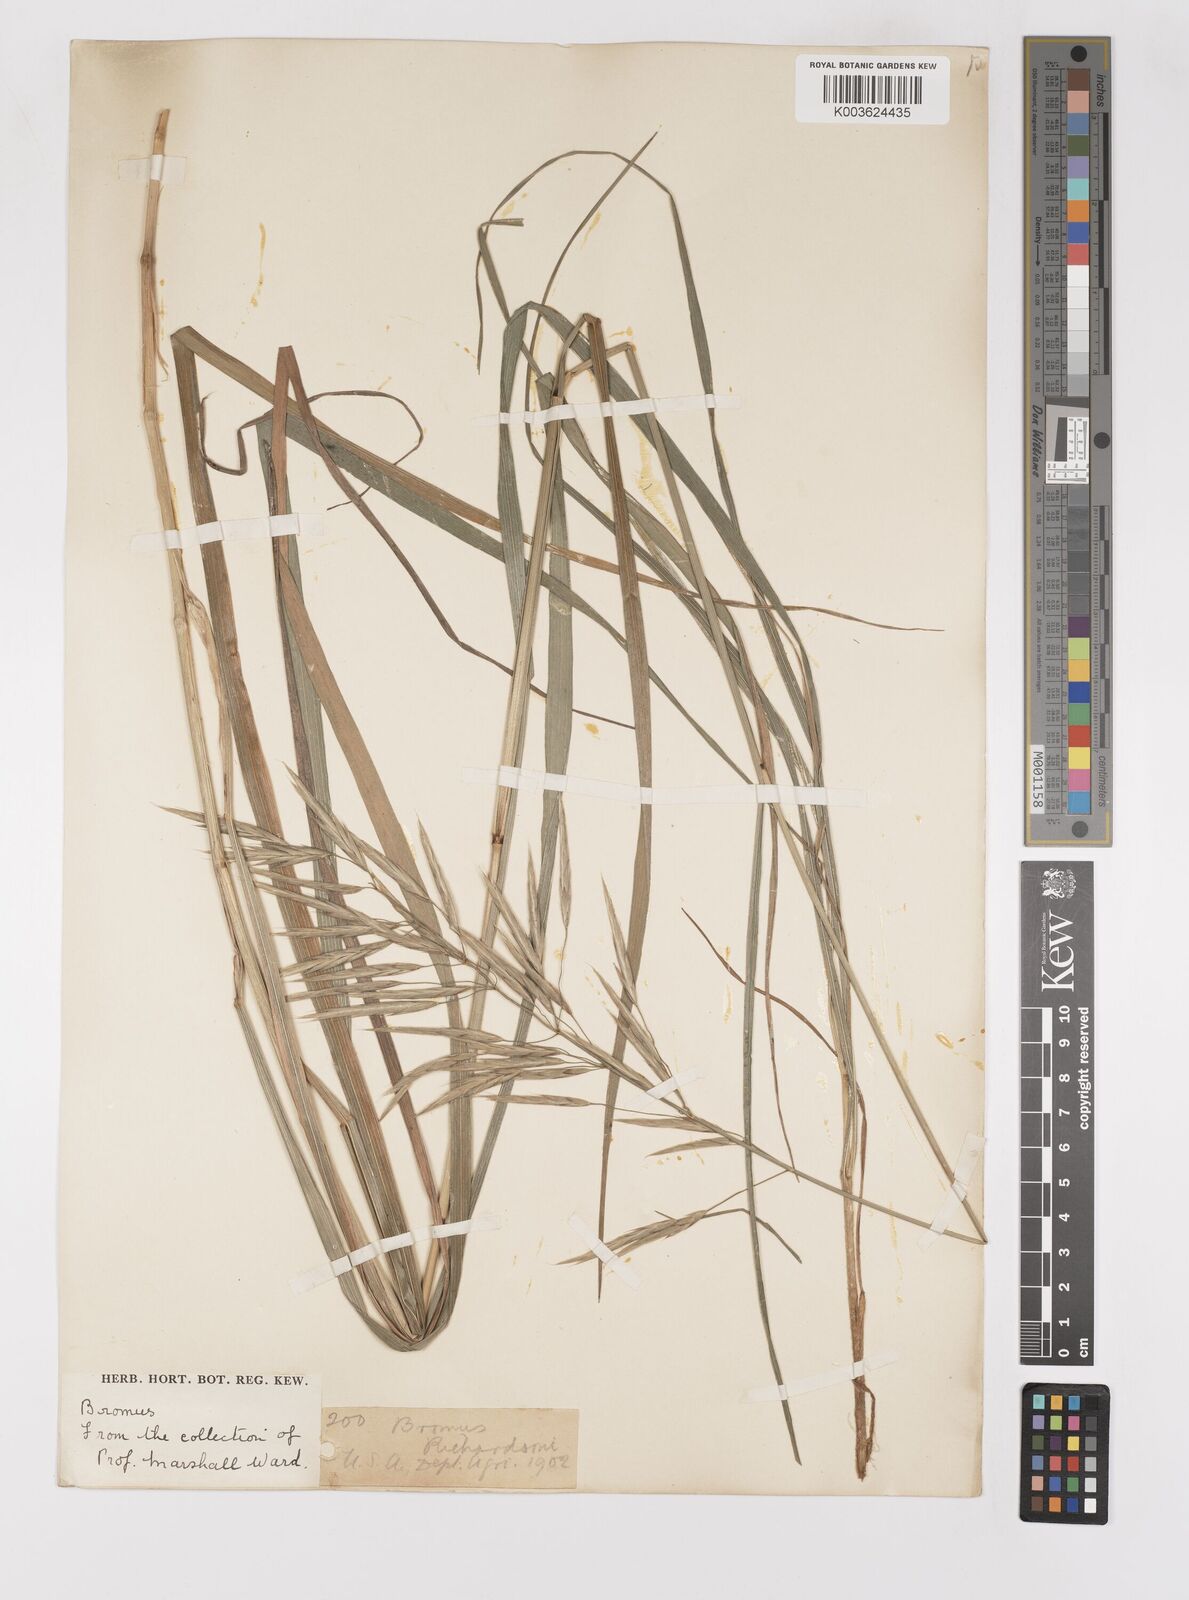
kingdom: Plantae
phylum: Tracheophyta
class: Liliopsida
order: Poales
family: Poaceae
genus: Bromus
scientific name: Bromus
